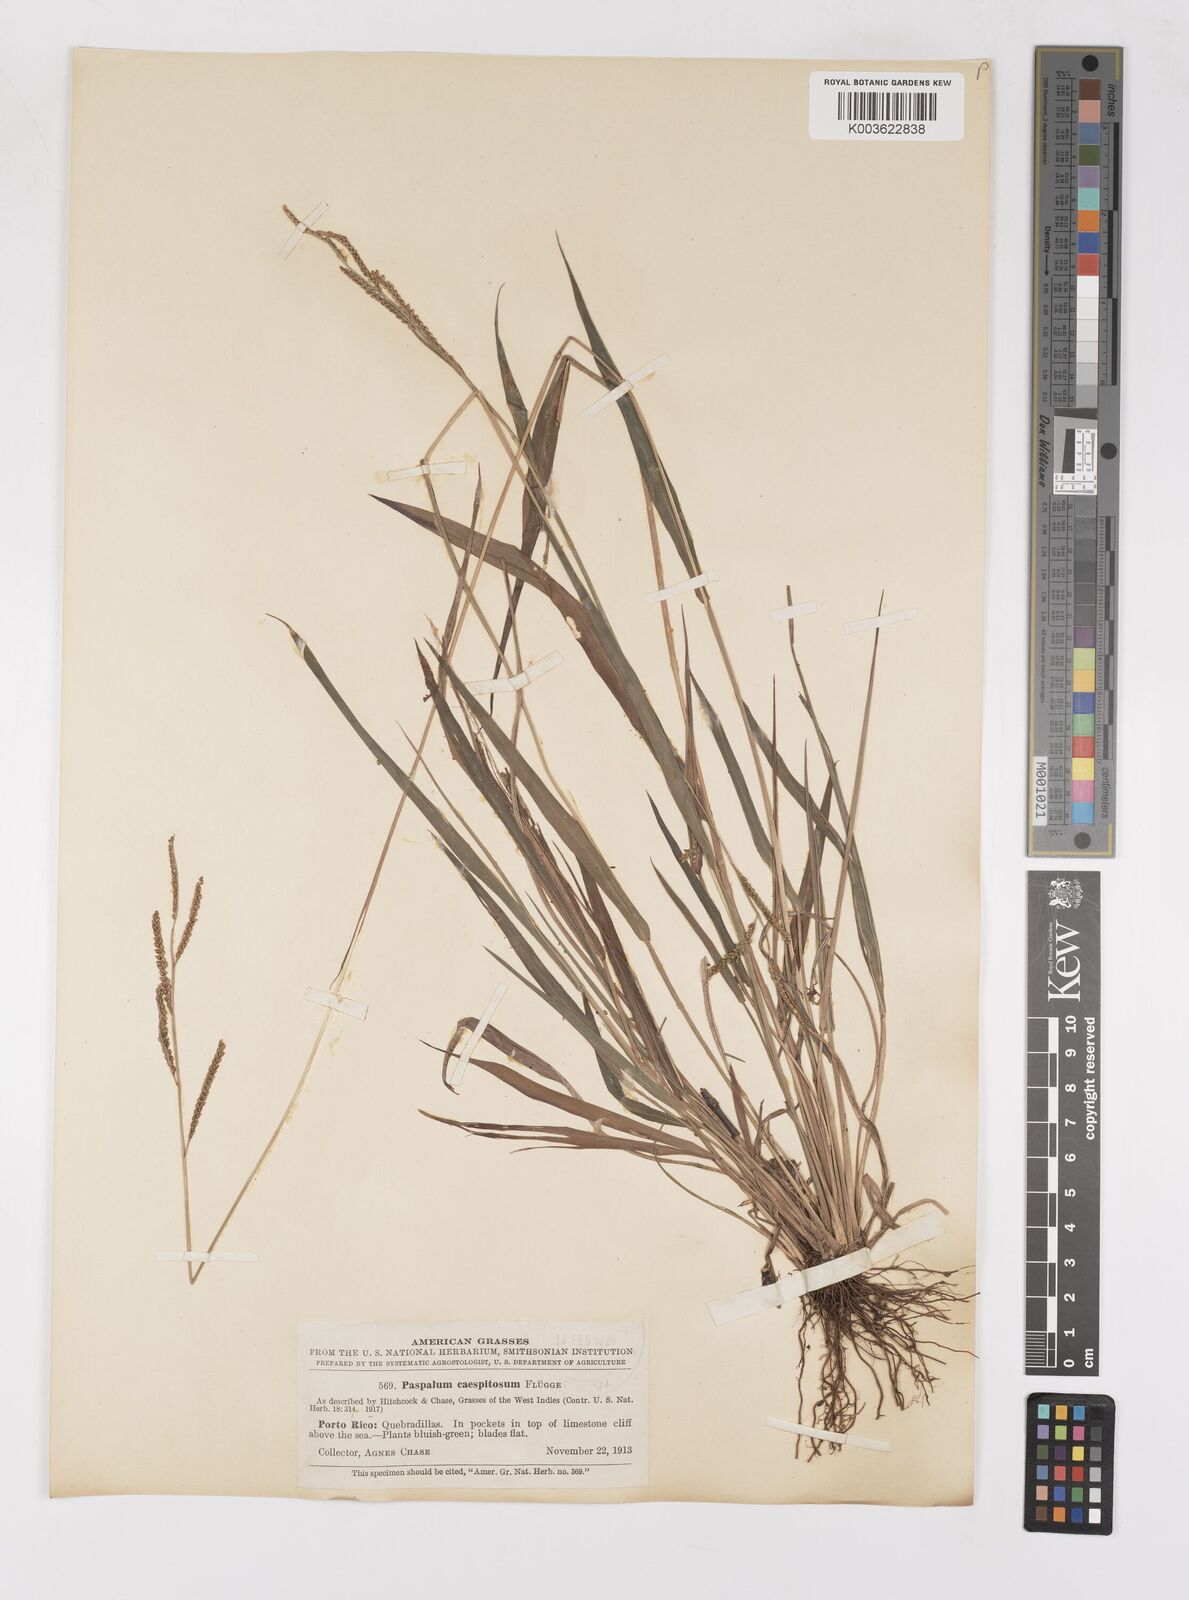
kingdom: Plantae
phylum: Tracheophyta
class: Liliopsida
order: Poales
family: Poaceae
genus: Paspalum
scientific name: Paspalum caespitosum
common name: Blue crowngrass
